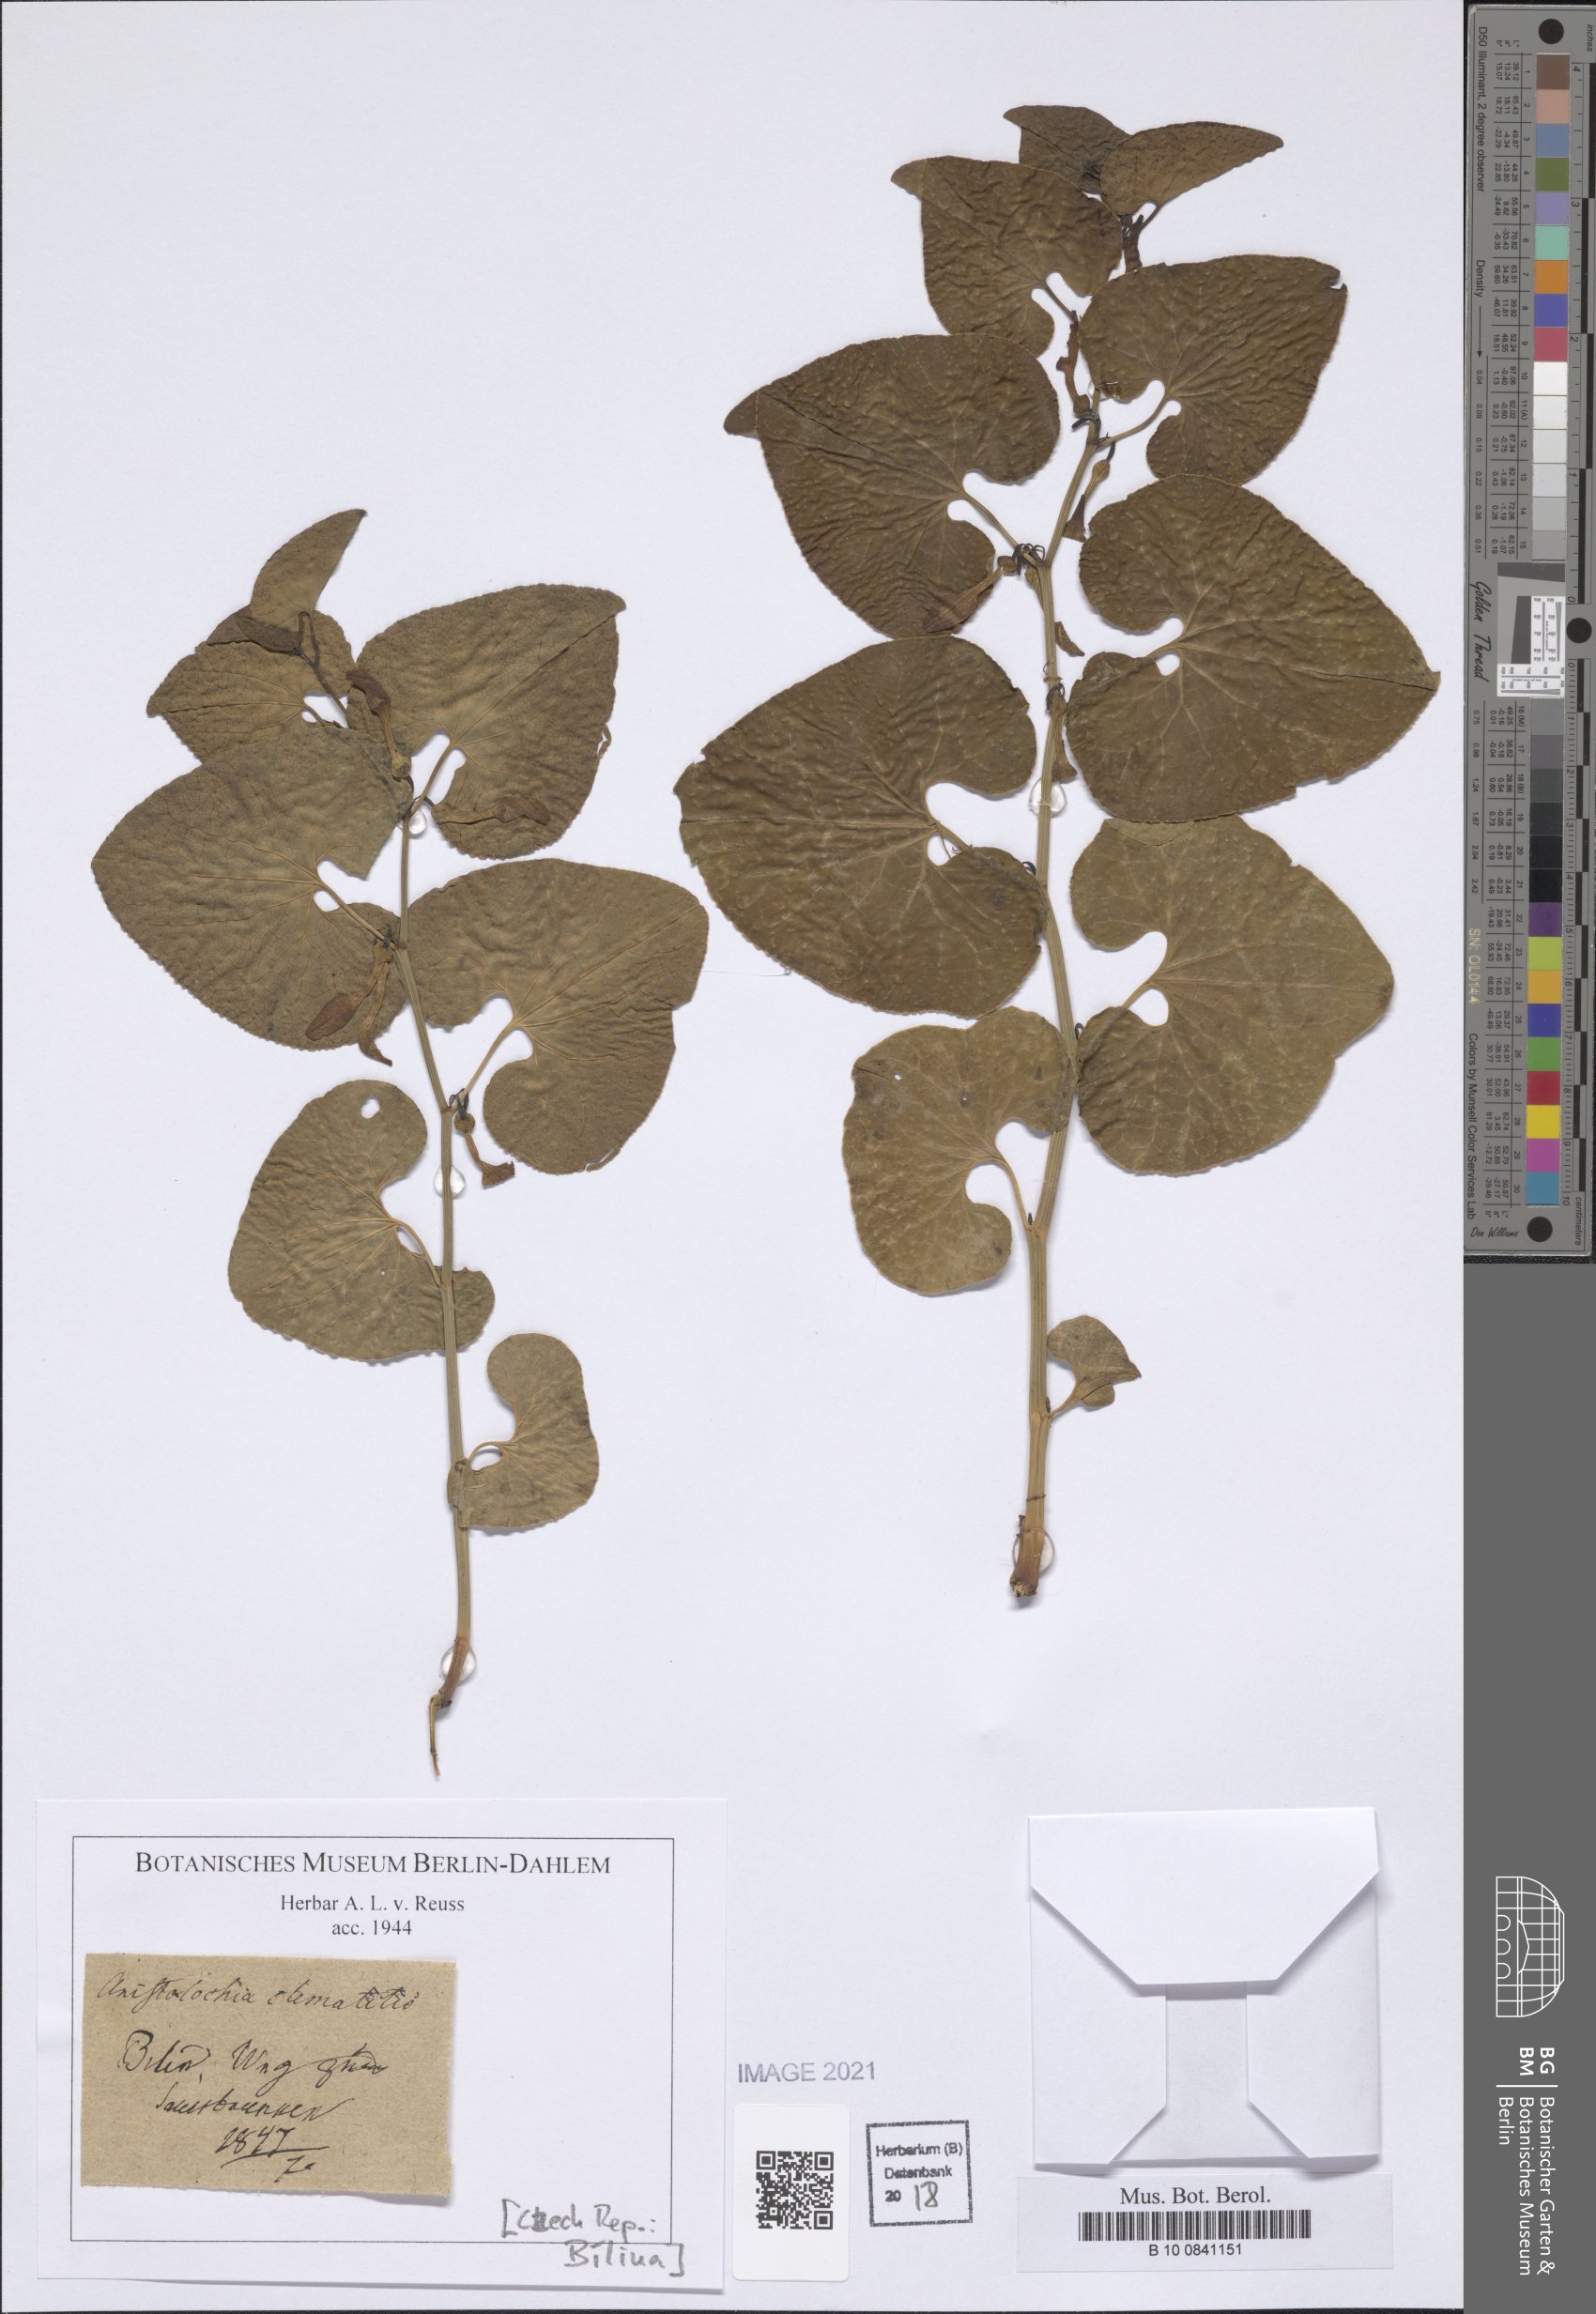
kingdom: Plantae
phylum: Tracheophyta
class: Magnoliopsida
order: Piperales
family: Aristolochiaceae
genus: Aristolochia
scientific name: Aristolochia clematitis
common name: Birthwort
